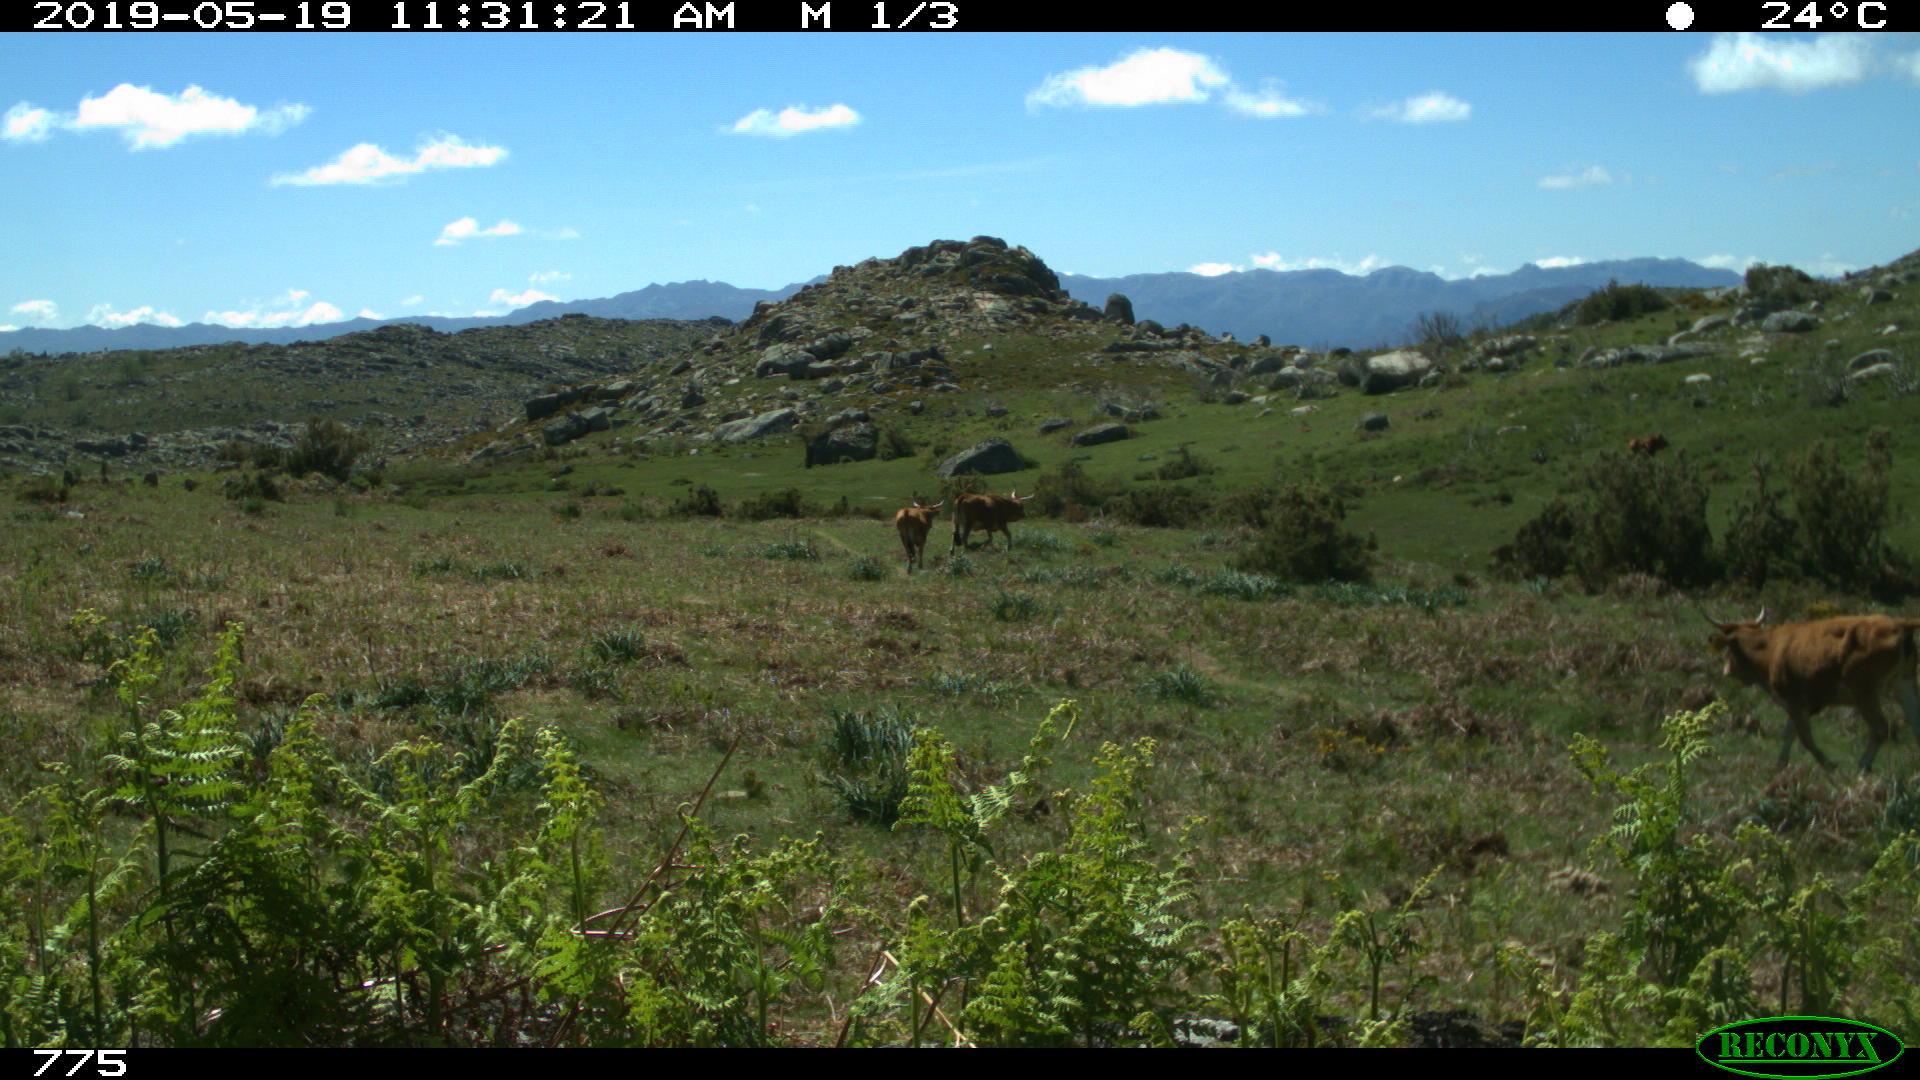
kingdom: Animalia
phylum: Chordata
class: Mammalia
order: Artiodactyla
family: Bovidae
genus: Bos
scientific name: Bos taurus
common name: Domesticated cattle
